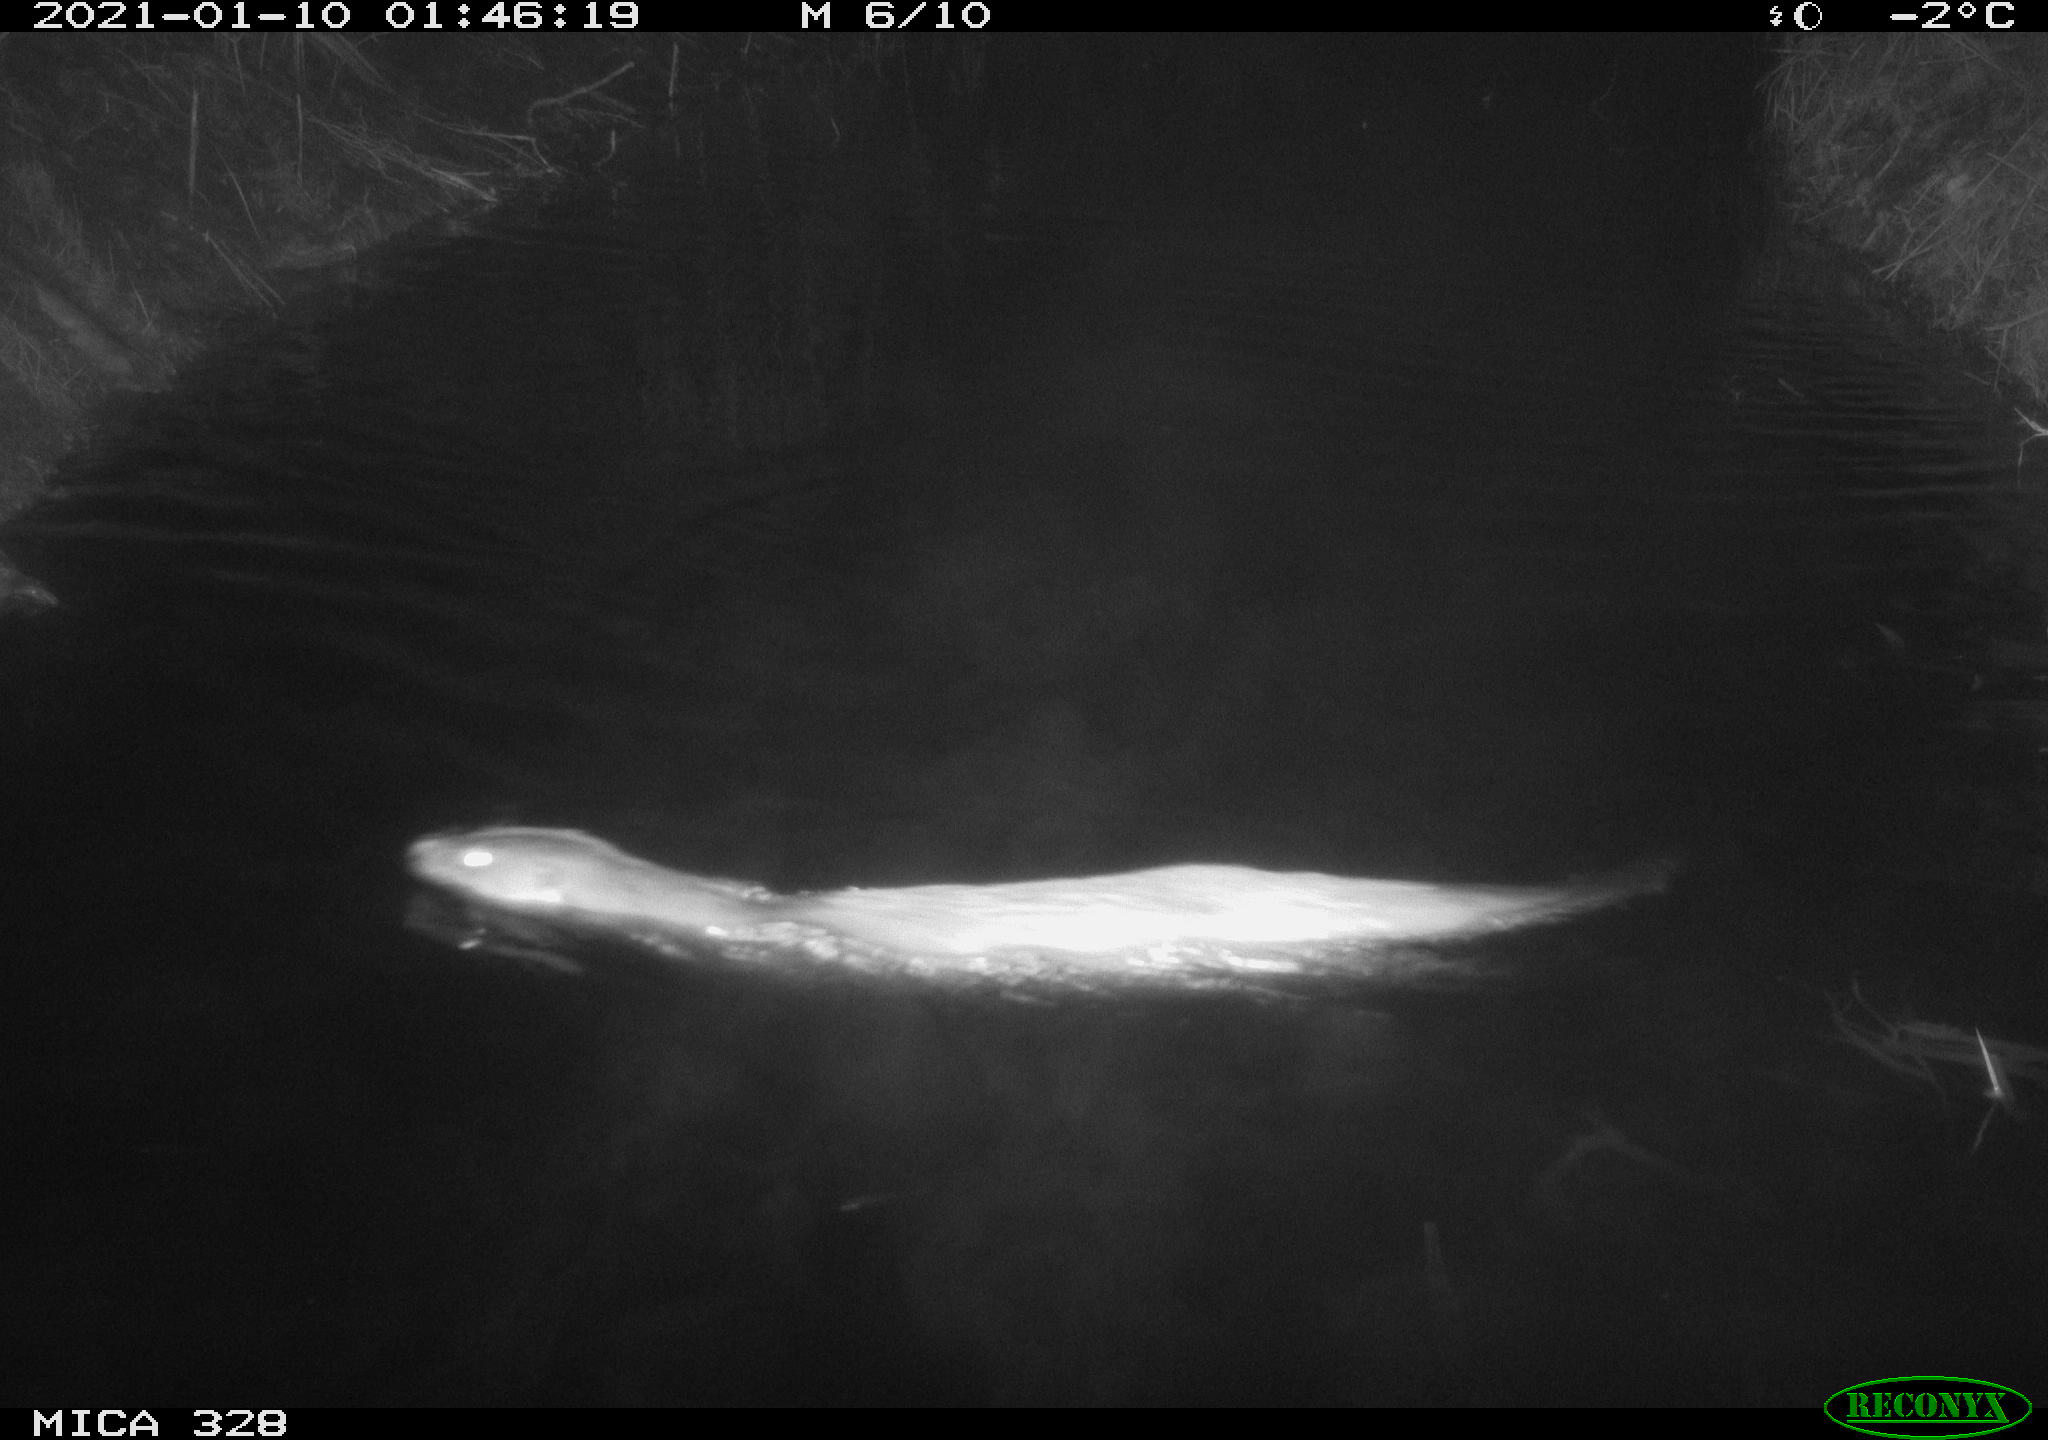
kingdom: Animalia
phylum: Chordata
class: Mammalia
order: Carnivora
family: Mustelidae
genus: Lutra
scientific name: Lutra lutra
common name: European otter
